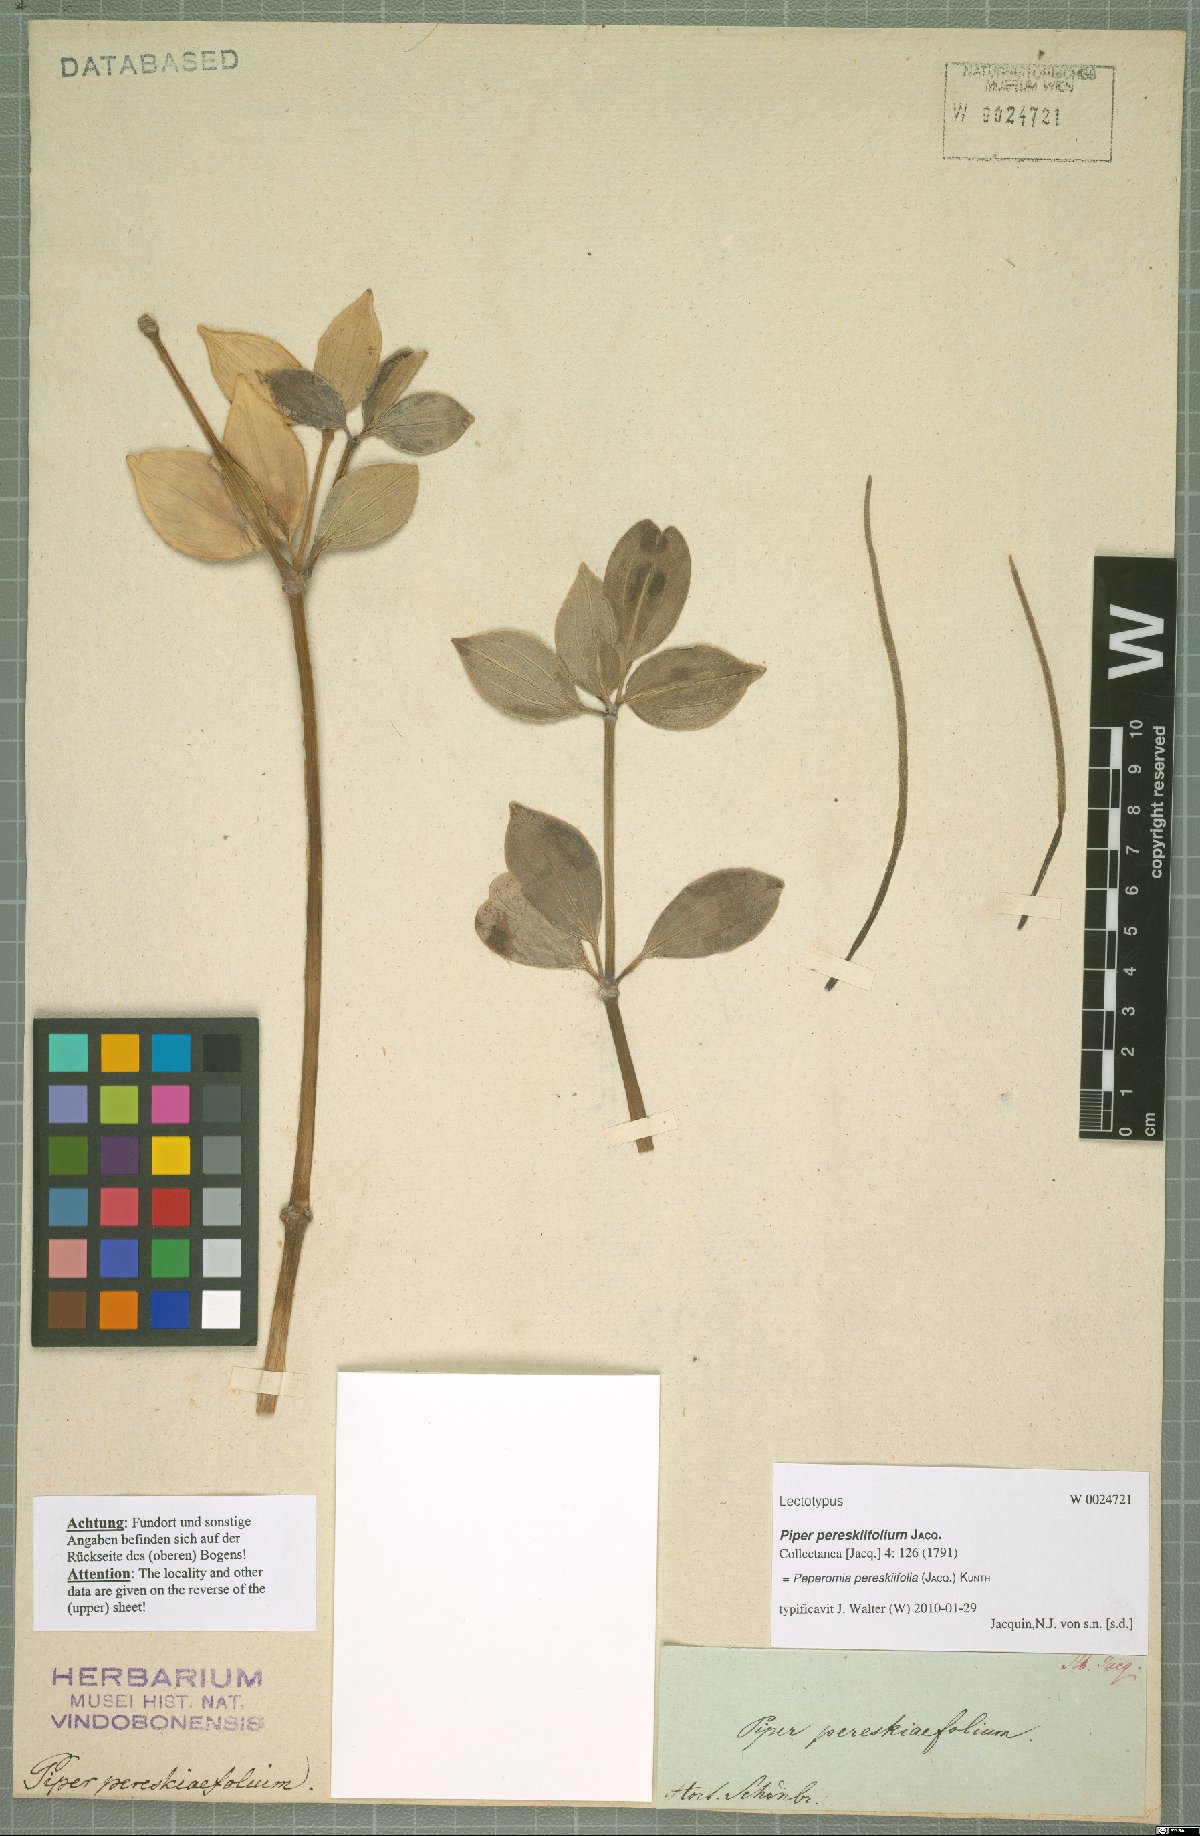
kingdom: Plantae
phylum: Tracheophyta
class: Magnoliopsida
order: Piperales
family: Piperaceae
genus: Peperomia
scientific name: Peperomia pereskiifolia
